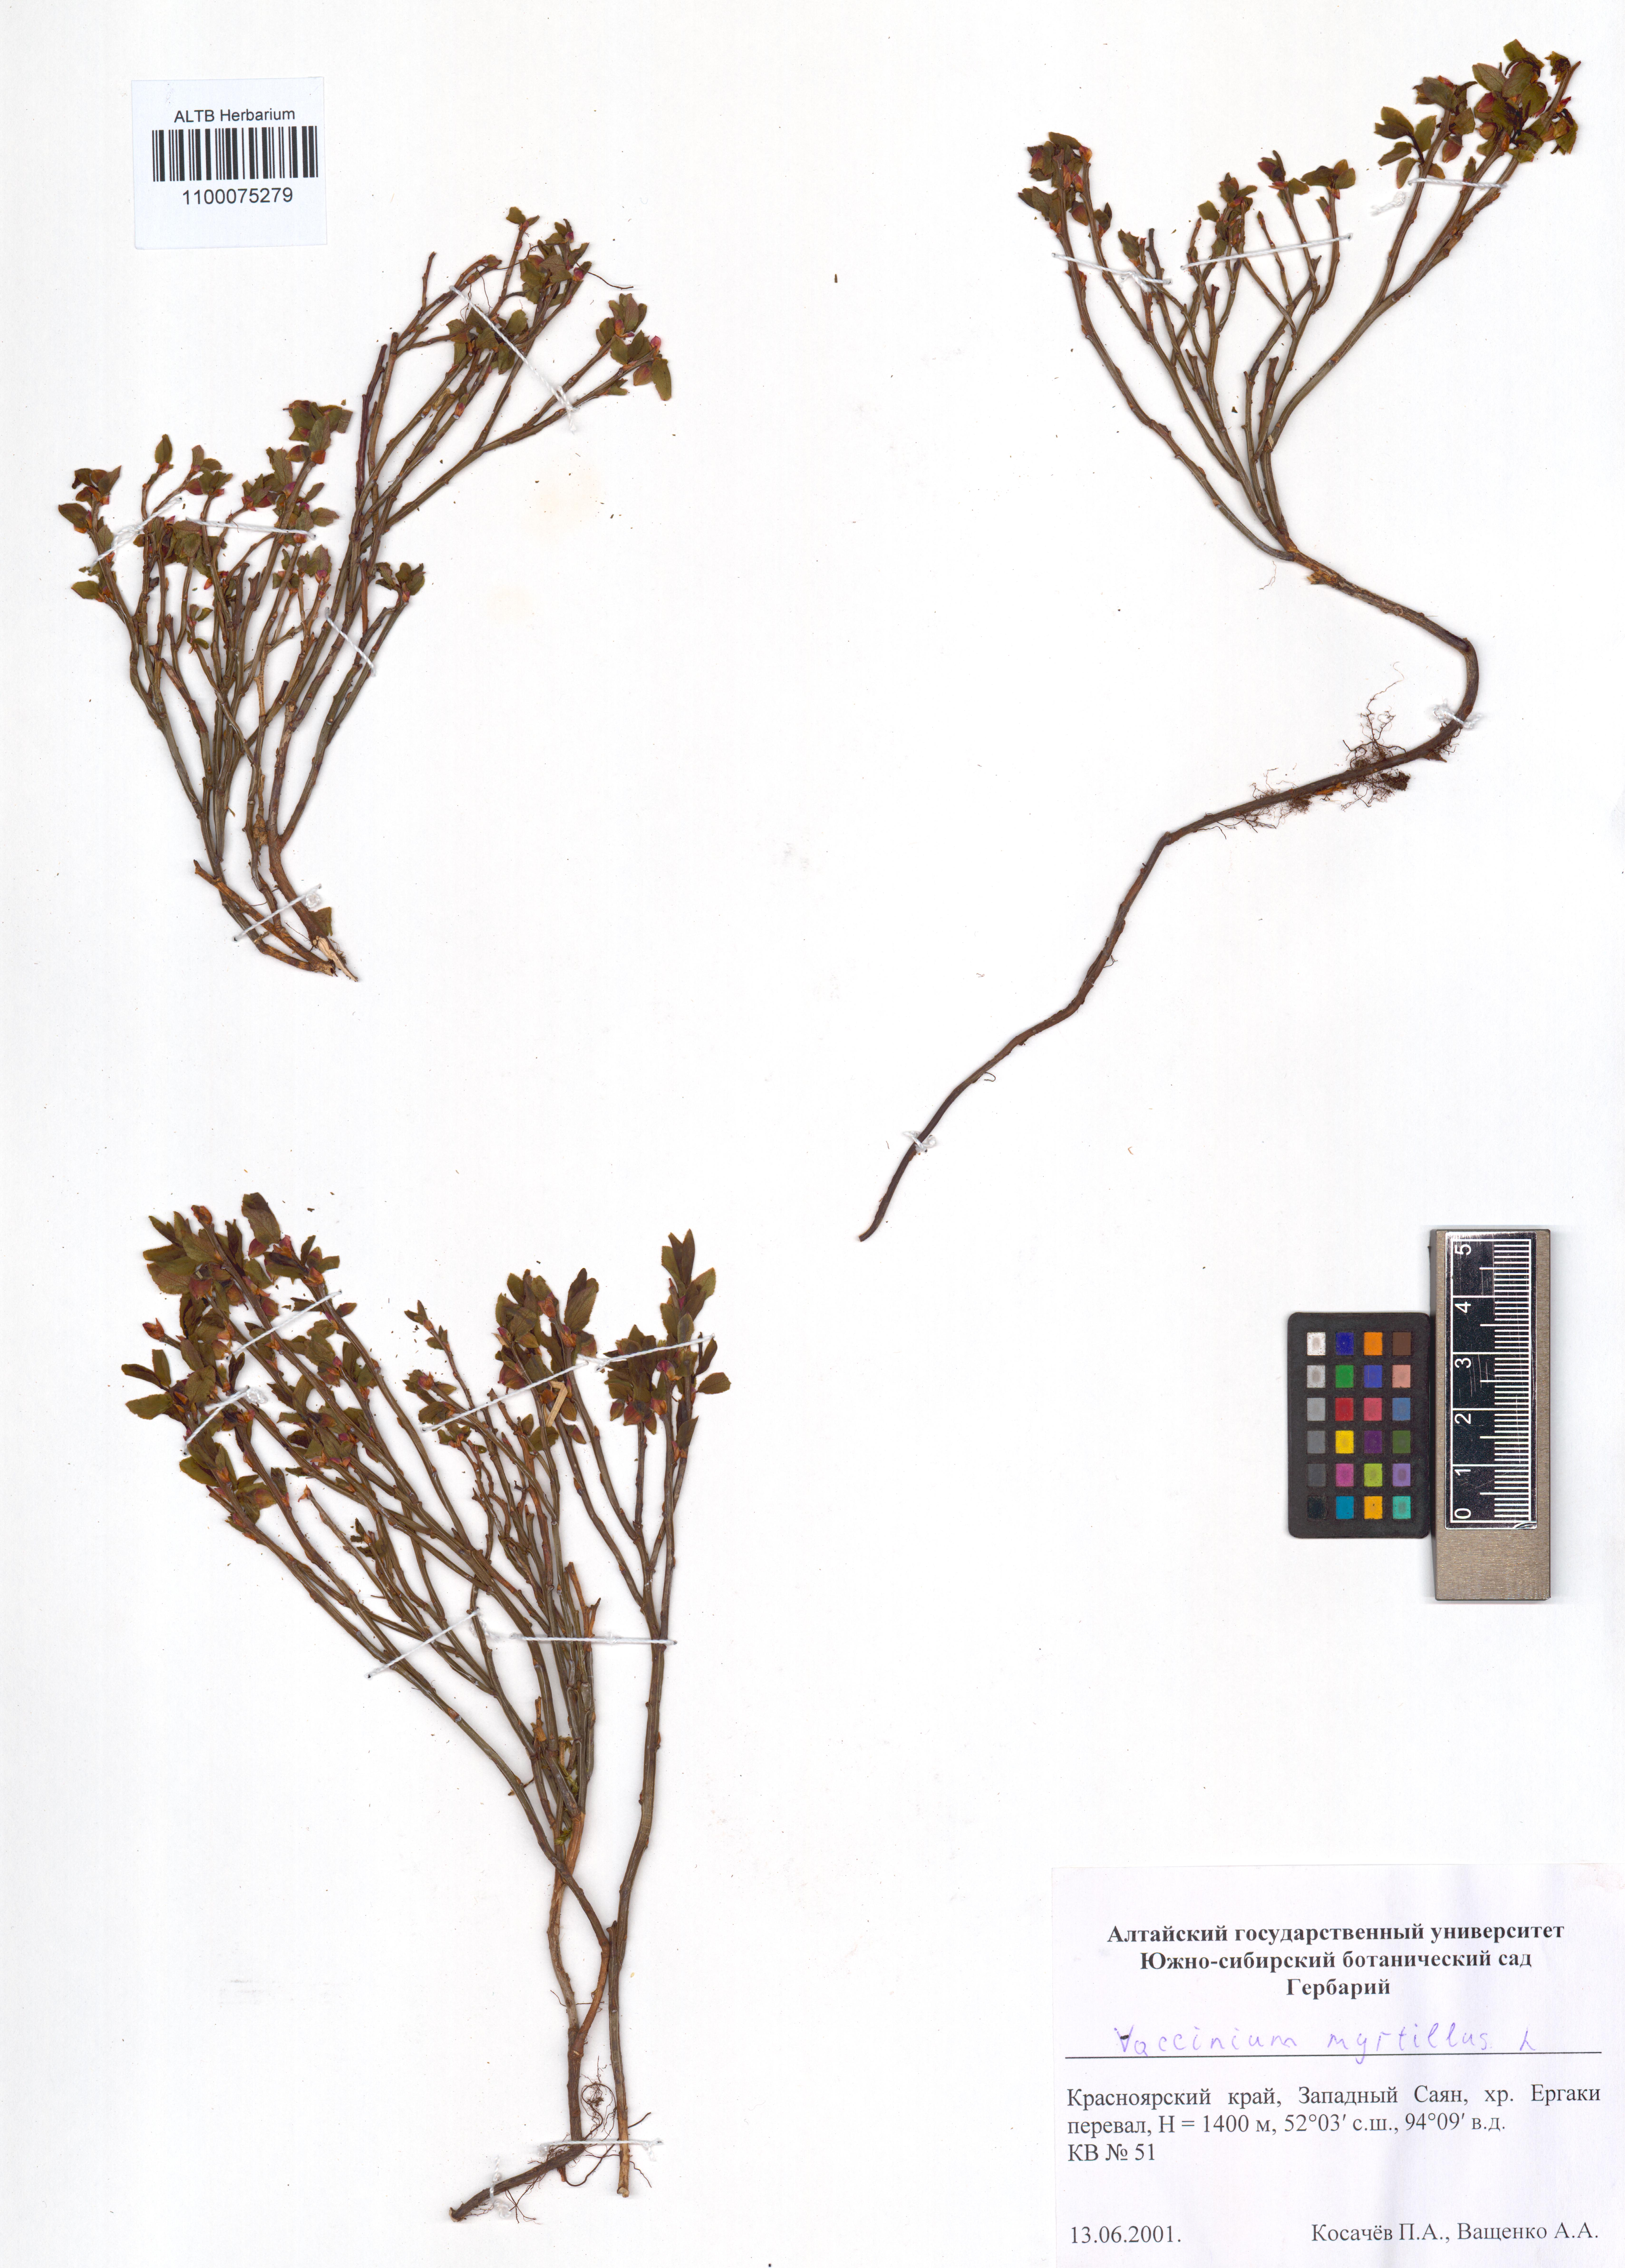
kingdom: Plantae
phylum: Tracheophyta
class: Magnoliopsida
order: Ericales
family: Ericaceae
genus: Vaccinium
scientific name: Vaccinium myrtillus
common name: Bilberry
